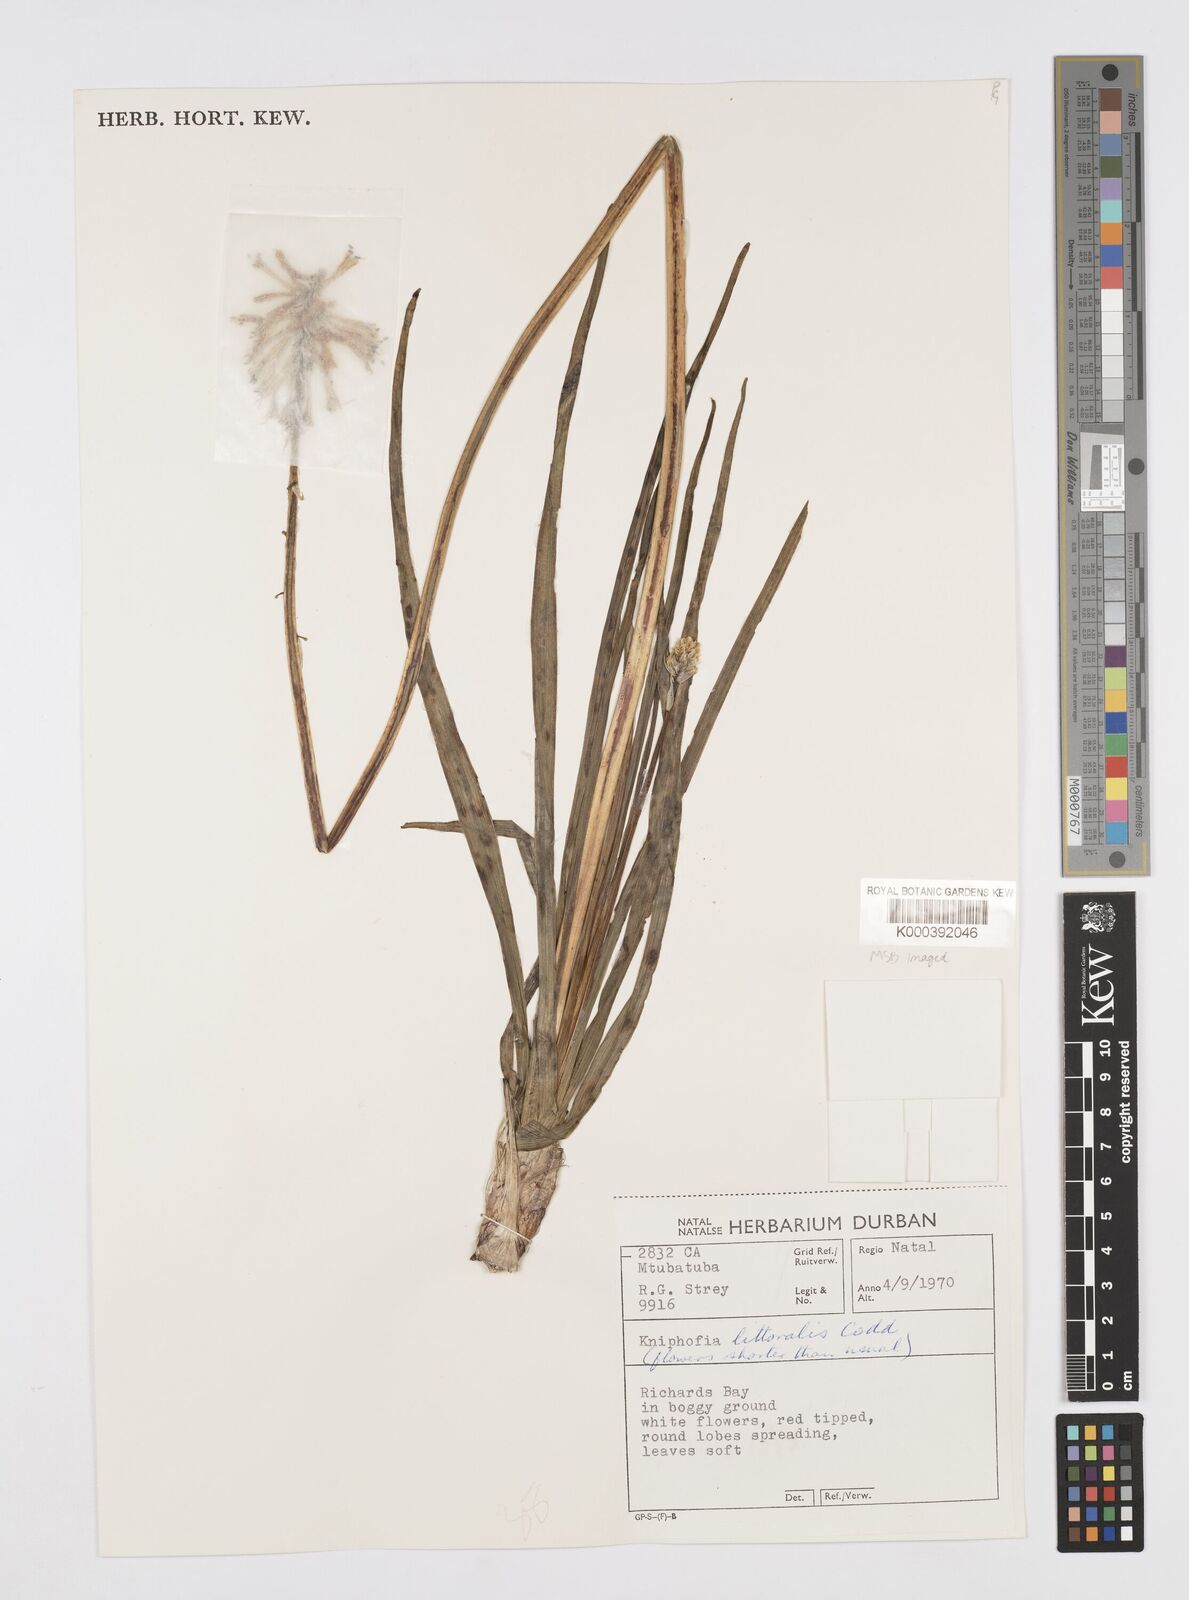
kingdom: Plantae
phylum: Tracheophyta
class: Liliopsida
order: Asparagales
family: Asphodelaceae
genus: Kniphofia
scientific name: Kniphofia littoralis
